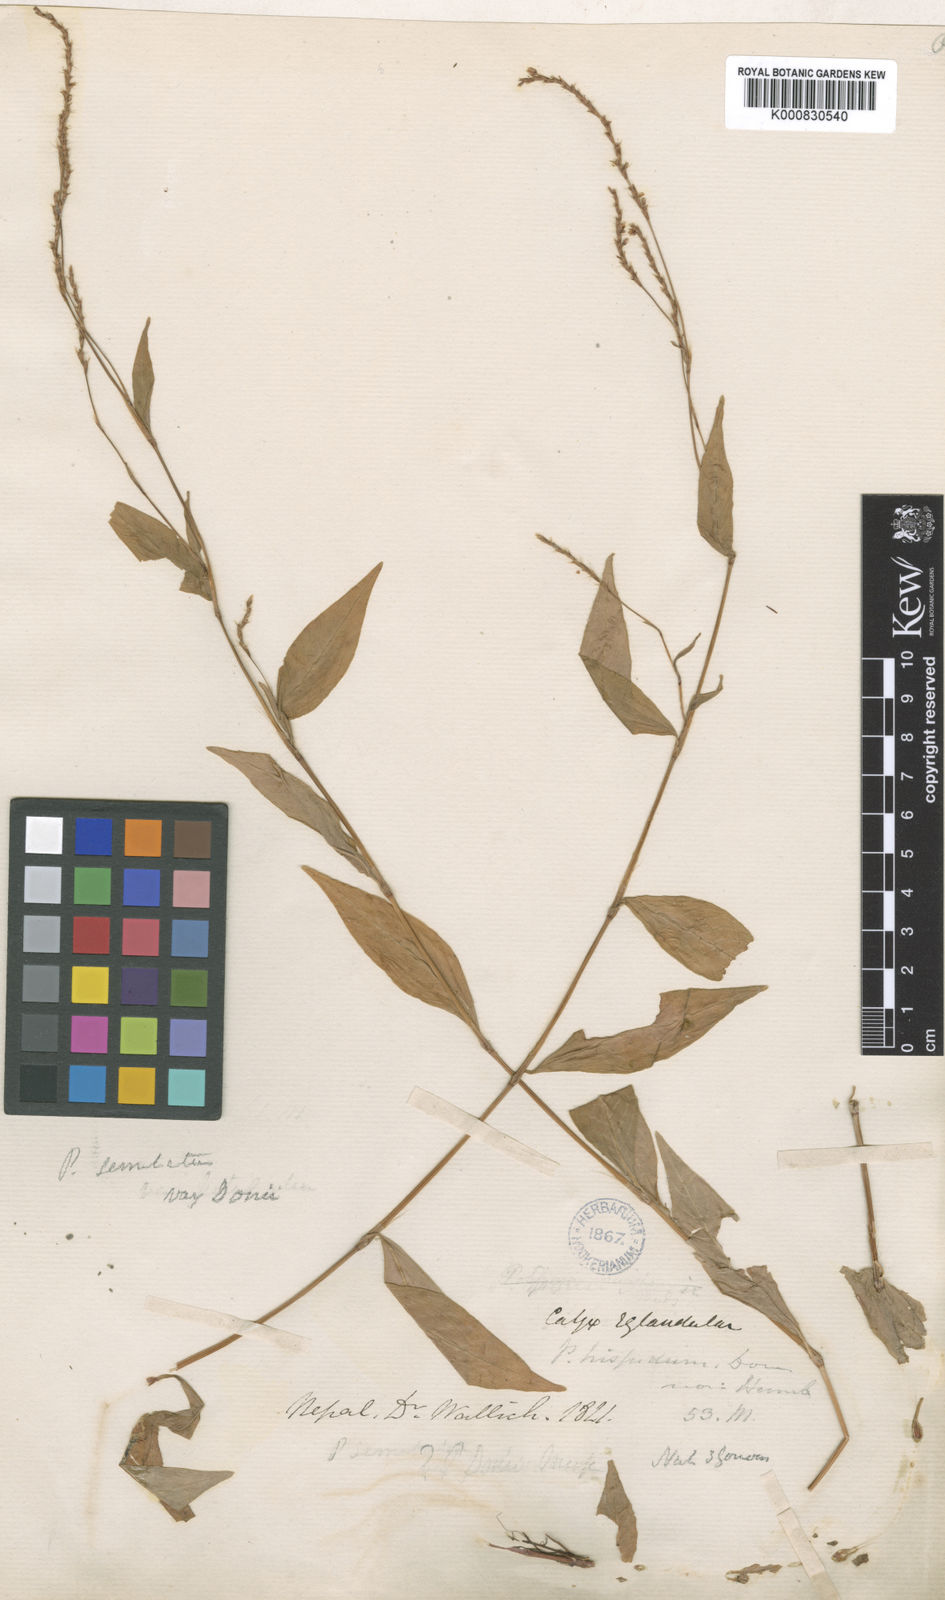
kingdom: Plantae
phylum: Tracheophyta
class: Magnoliopsida
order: Caryophyllales
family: Polygonaceae
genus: Persicaria
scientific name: Persicaria salicifolia
